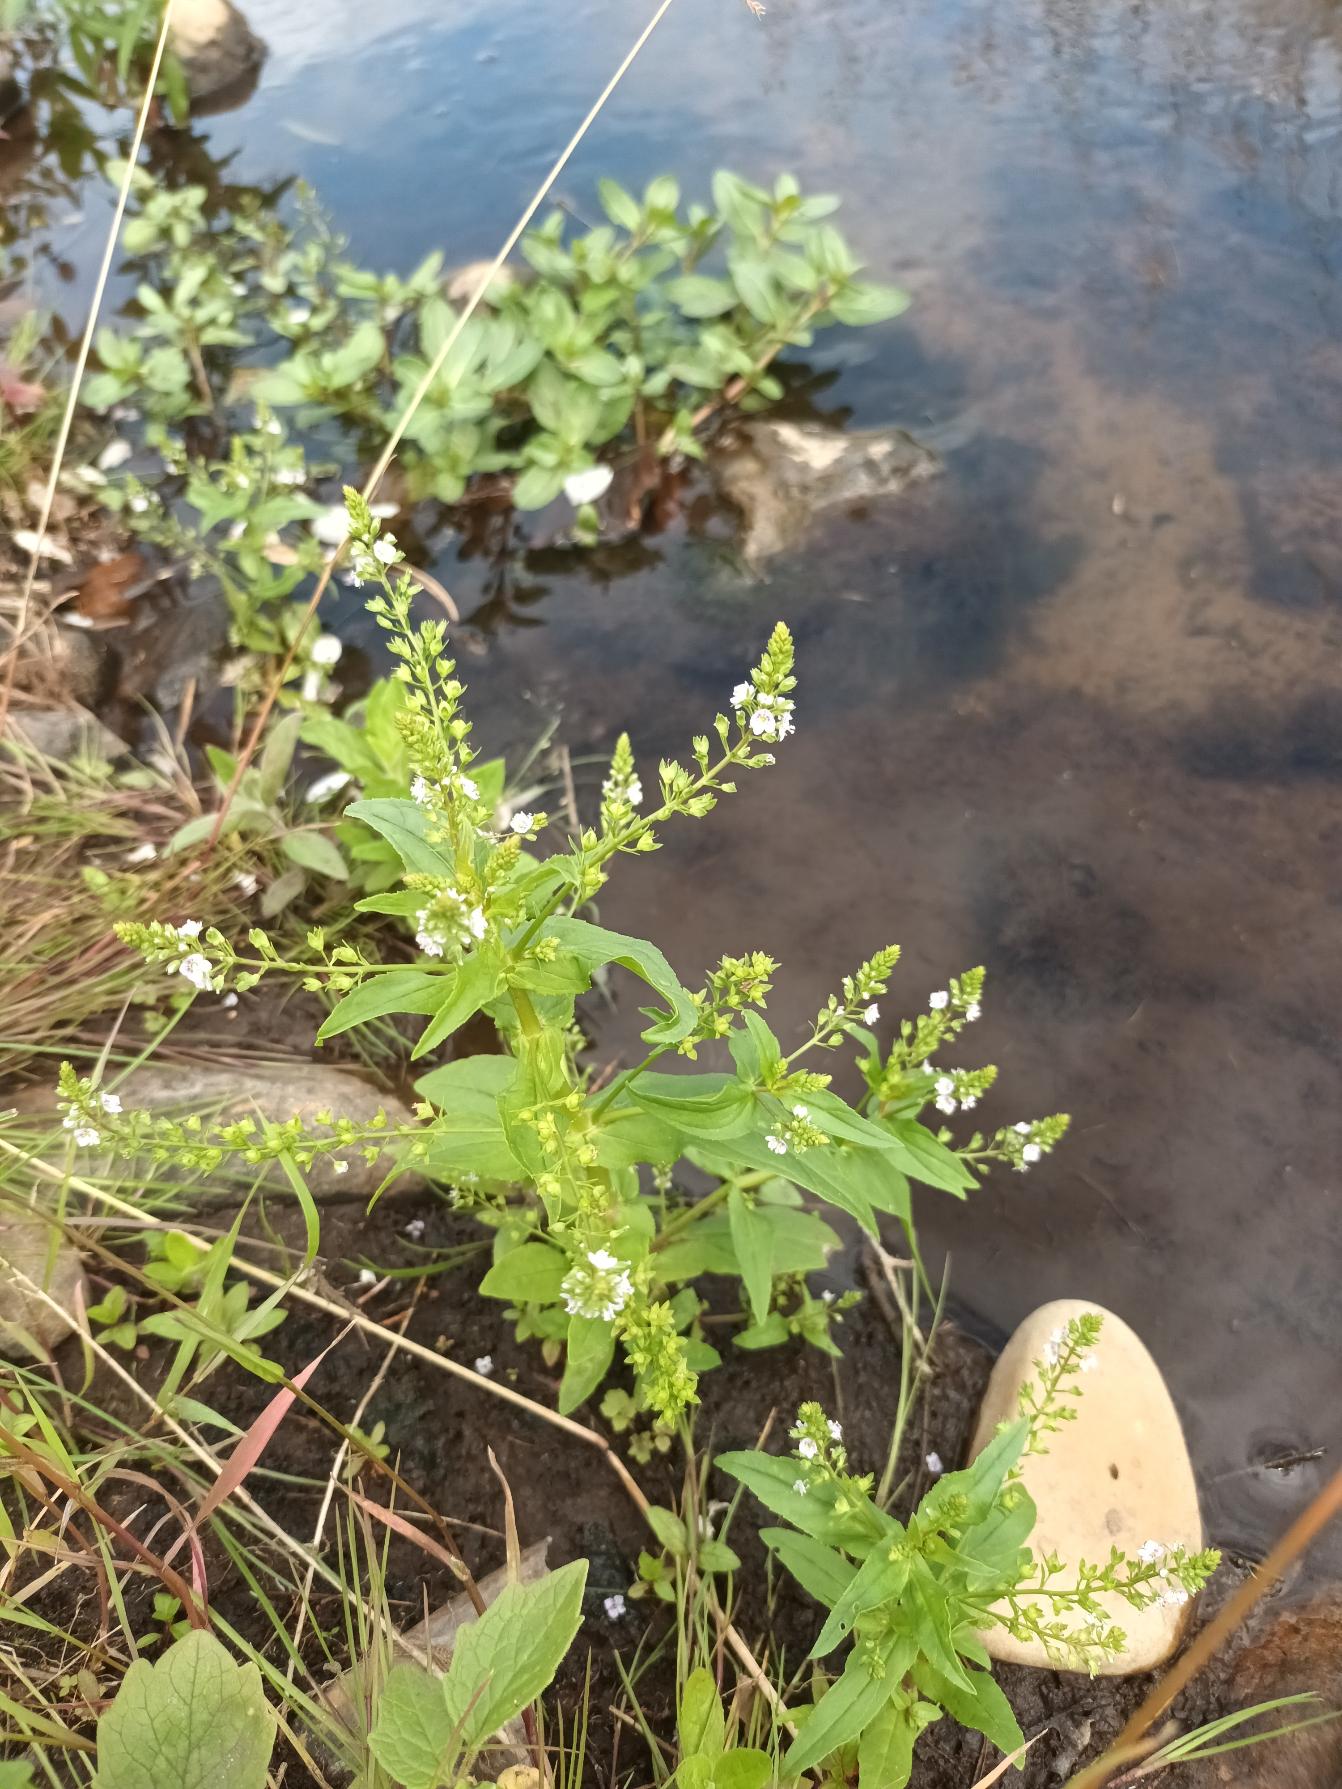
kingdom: Plantae
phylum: Tracheophyta
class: Magnoliopsida
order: Lamiales
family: Plantaginaceae
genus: Veronica
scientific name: Veronica anagallis-aquatica
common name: Lancetbladet ærenpris
